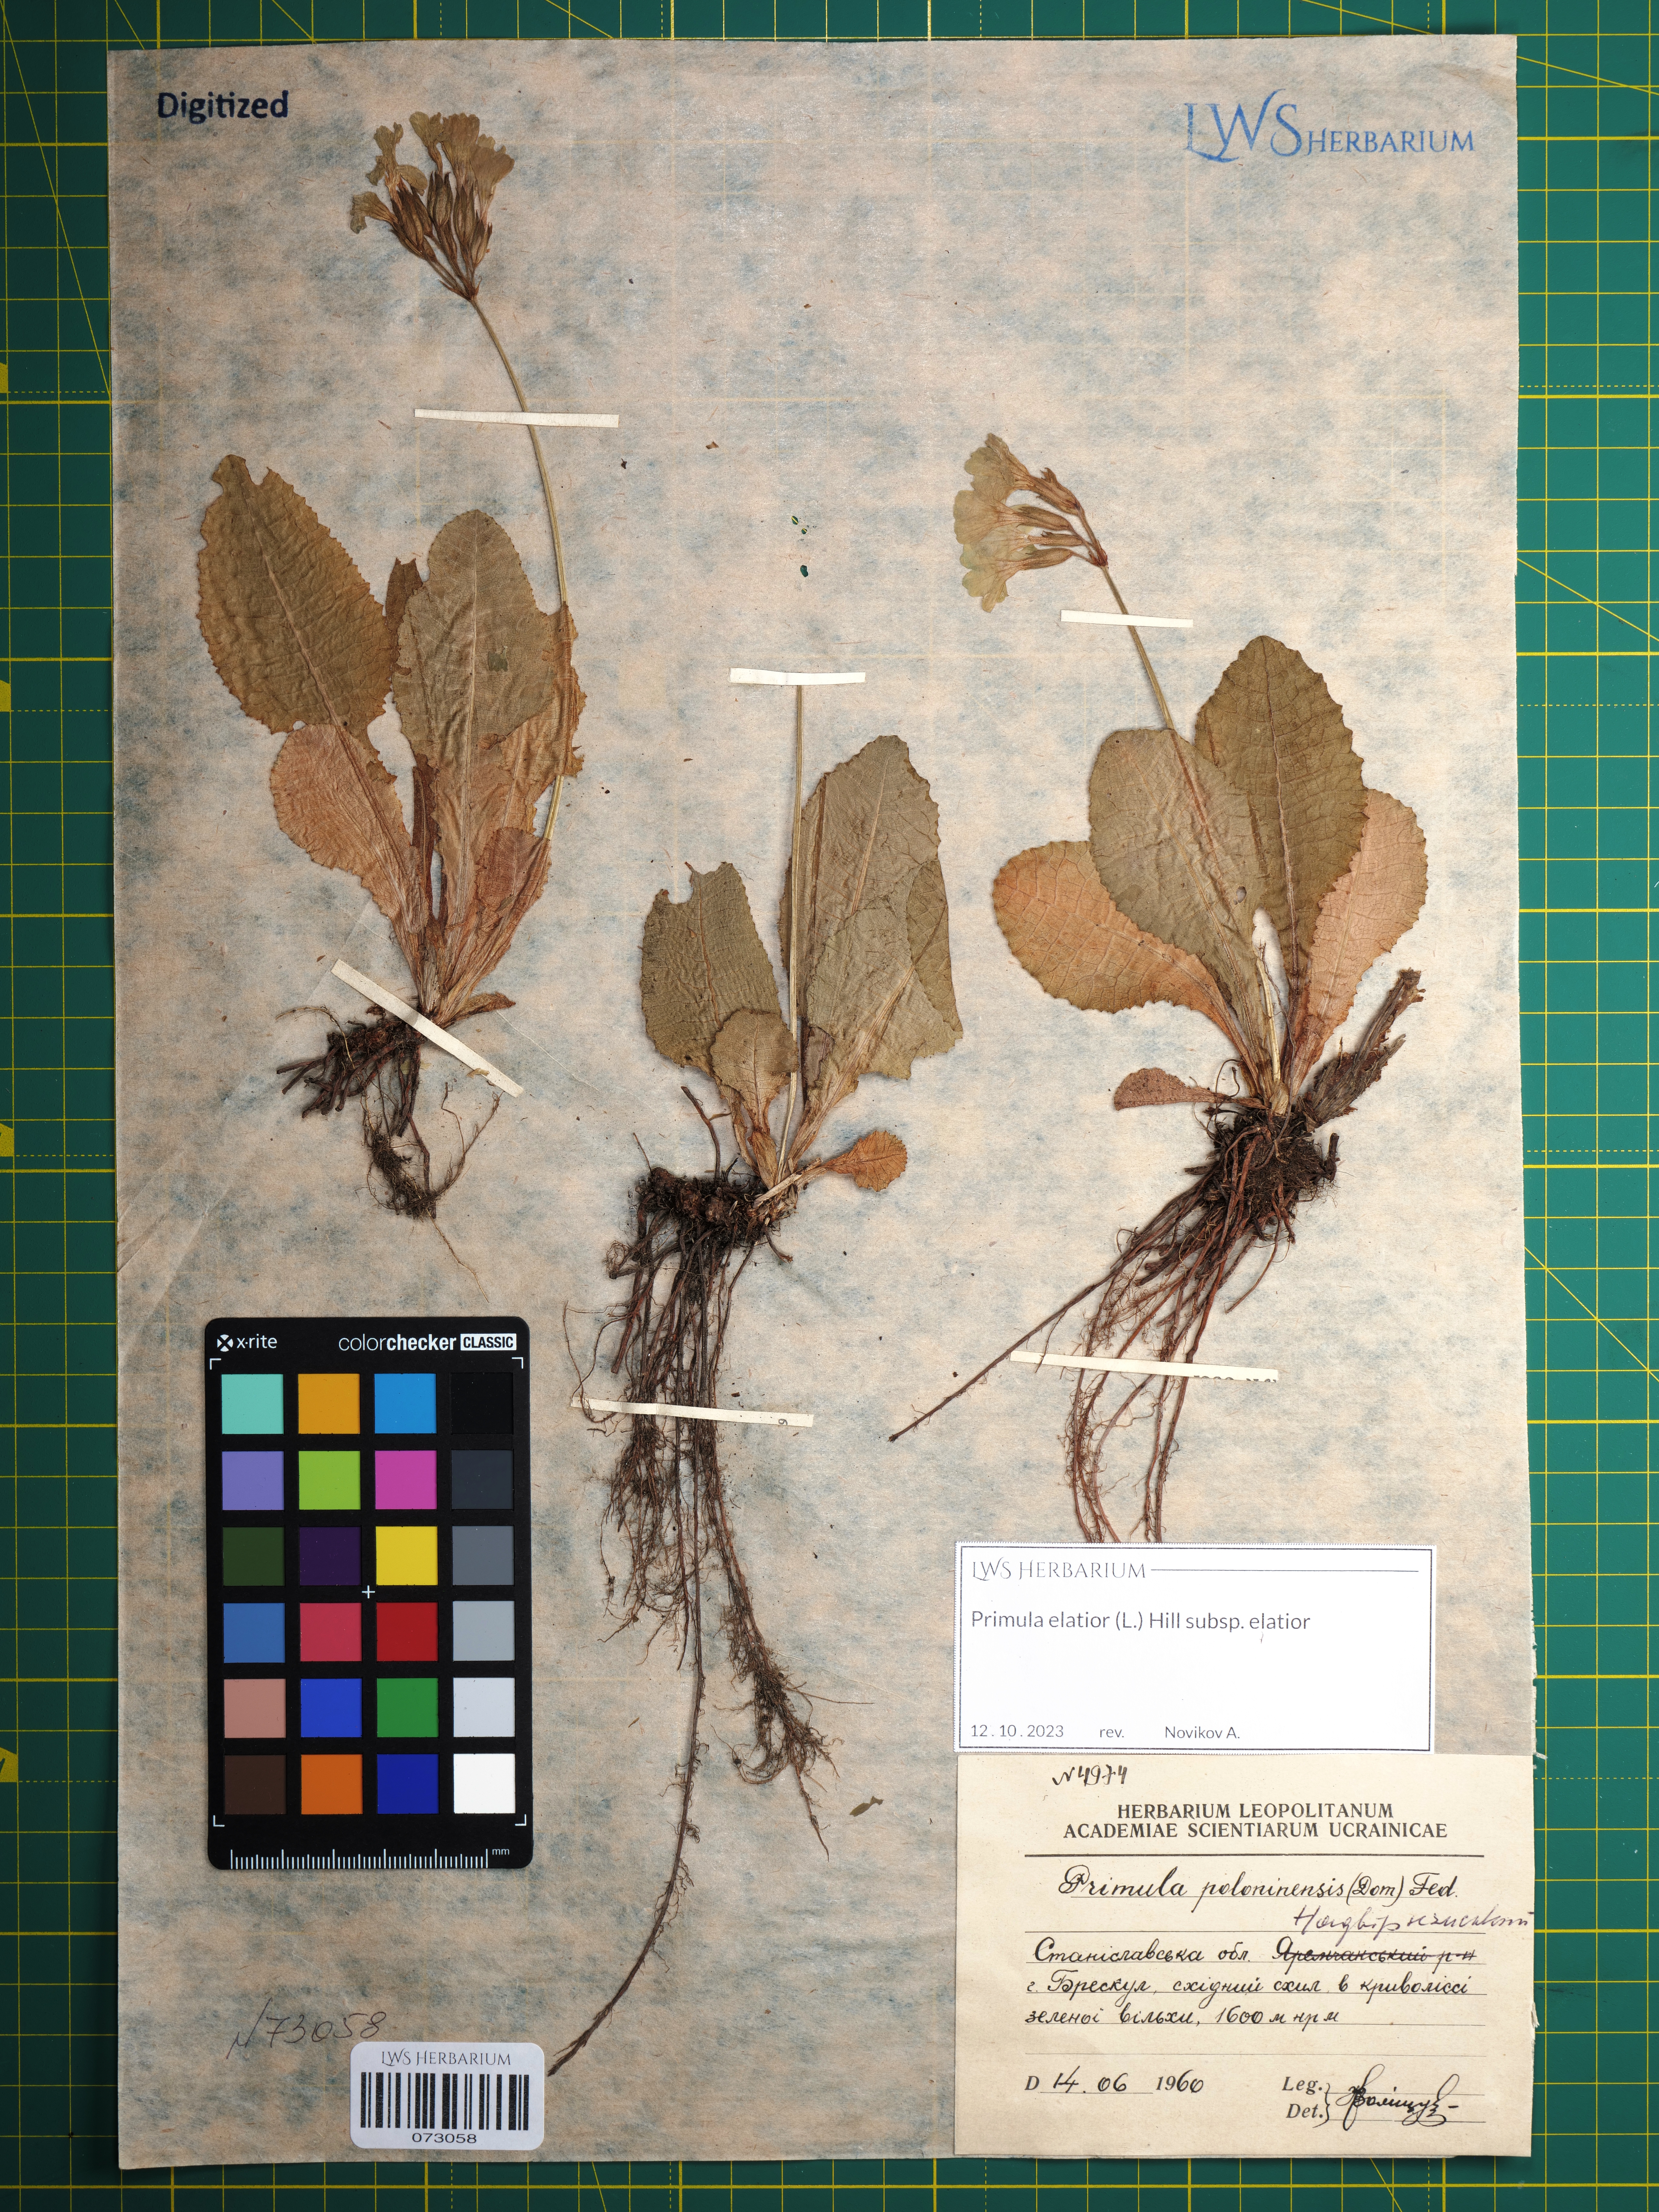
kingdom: Plantae
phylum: Tracheophyta
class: Magnoliopsida
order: Ericales
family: Primulaceae
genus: Primula
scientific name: Primula elatior
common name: Oxlip
